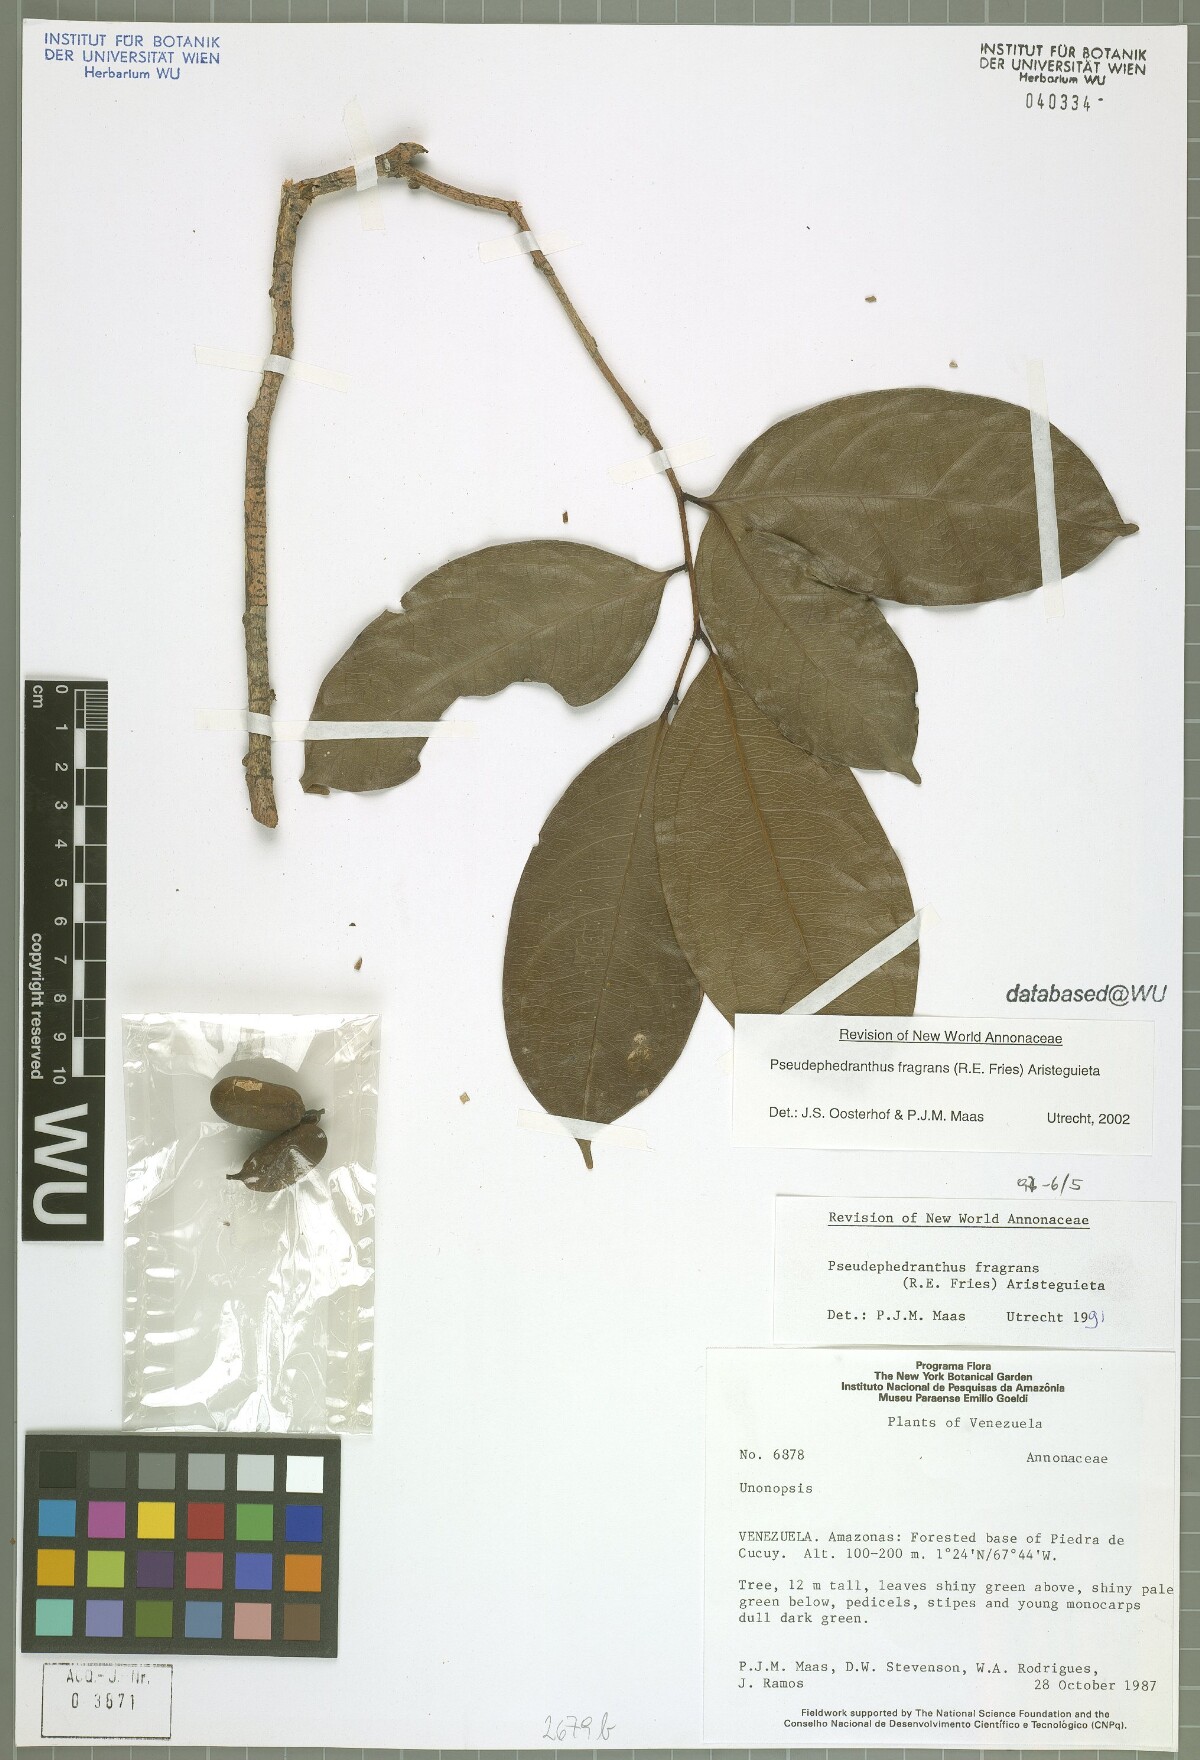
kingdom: Plantae
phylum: Tracheophyta
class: Magnoliopsida
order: Magnoliales
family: Annonaceae
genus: Pseudephedranthus
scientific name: Pseudephedranthus fragrans
